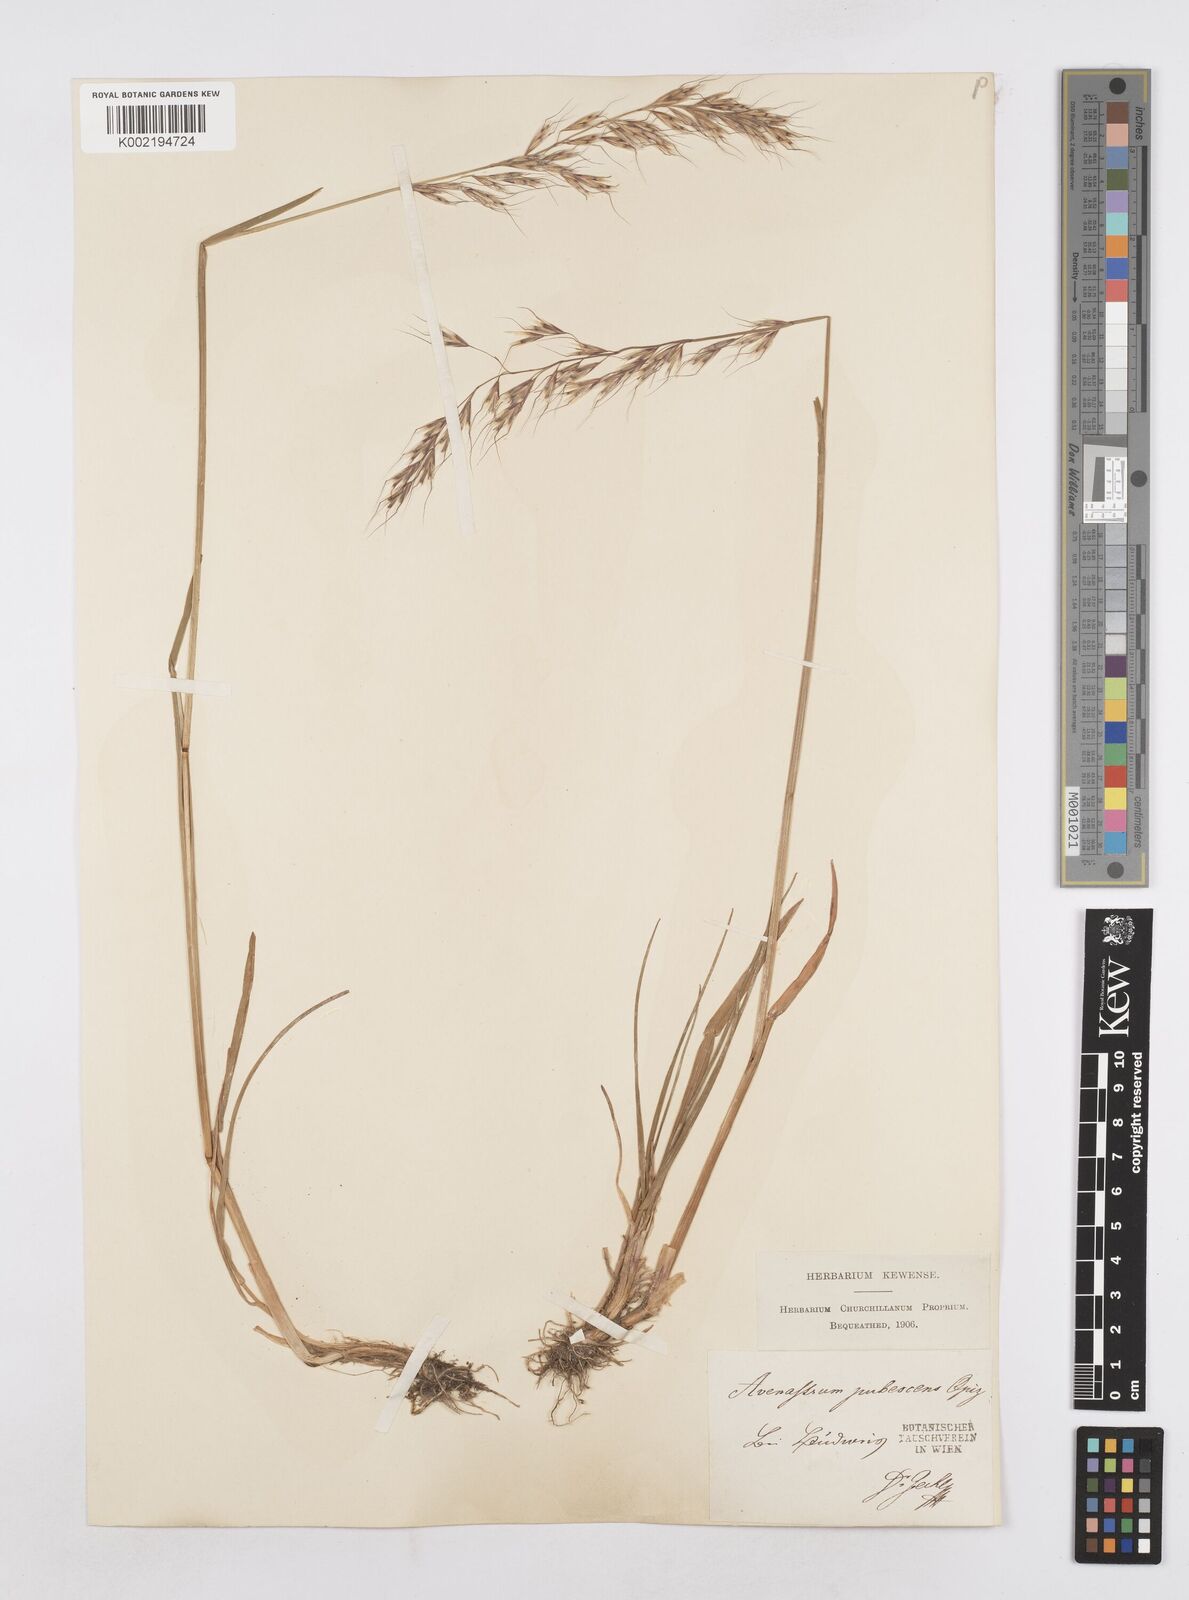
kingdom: Plantae
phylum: Tracheophyta
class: Liliopsida
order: Poales
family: Poaceae
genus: Avenula
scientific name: Avenula pubescens
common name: Downy alpine oatgrass
